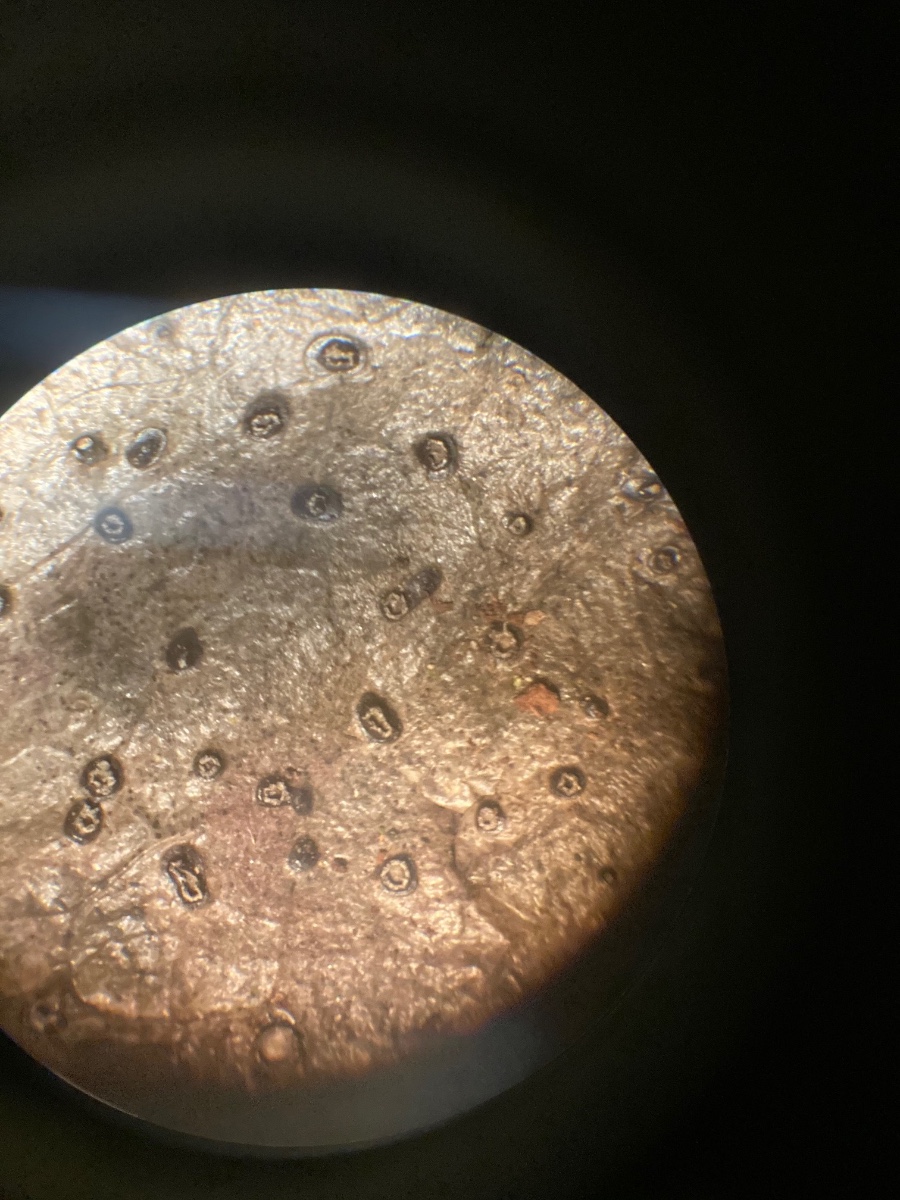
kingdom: Fungi
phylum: Ascomycota
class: Leotiomycetes
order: Phacidiales
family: Phacidiaceae
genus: Phacidium
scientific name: Phacidium lauri
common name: kristtorn-tandskive
